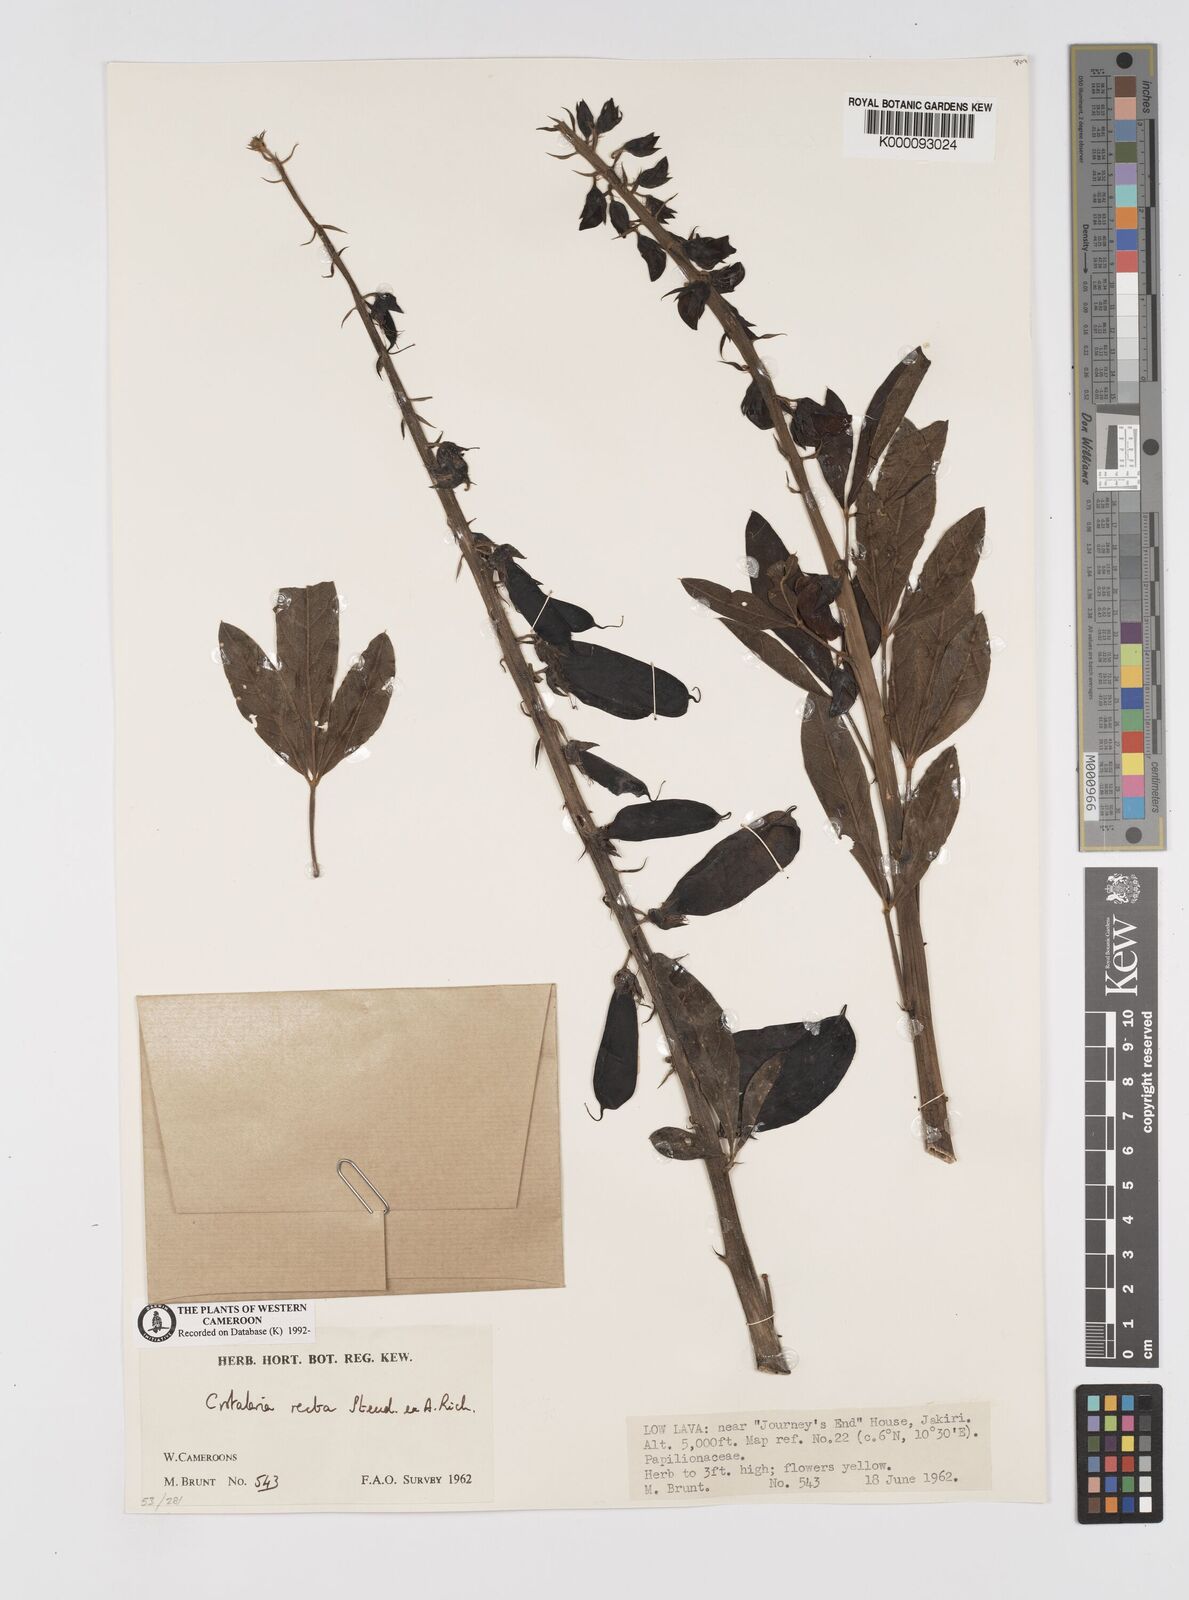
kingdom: Plantae
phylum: Tracheophyta
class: Magnoliopsida
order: Fabales
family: Fabaceae
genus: Crotalaria
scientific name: Crotalaria recta
